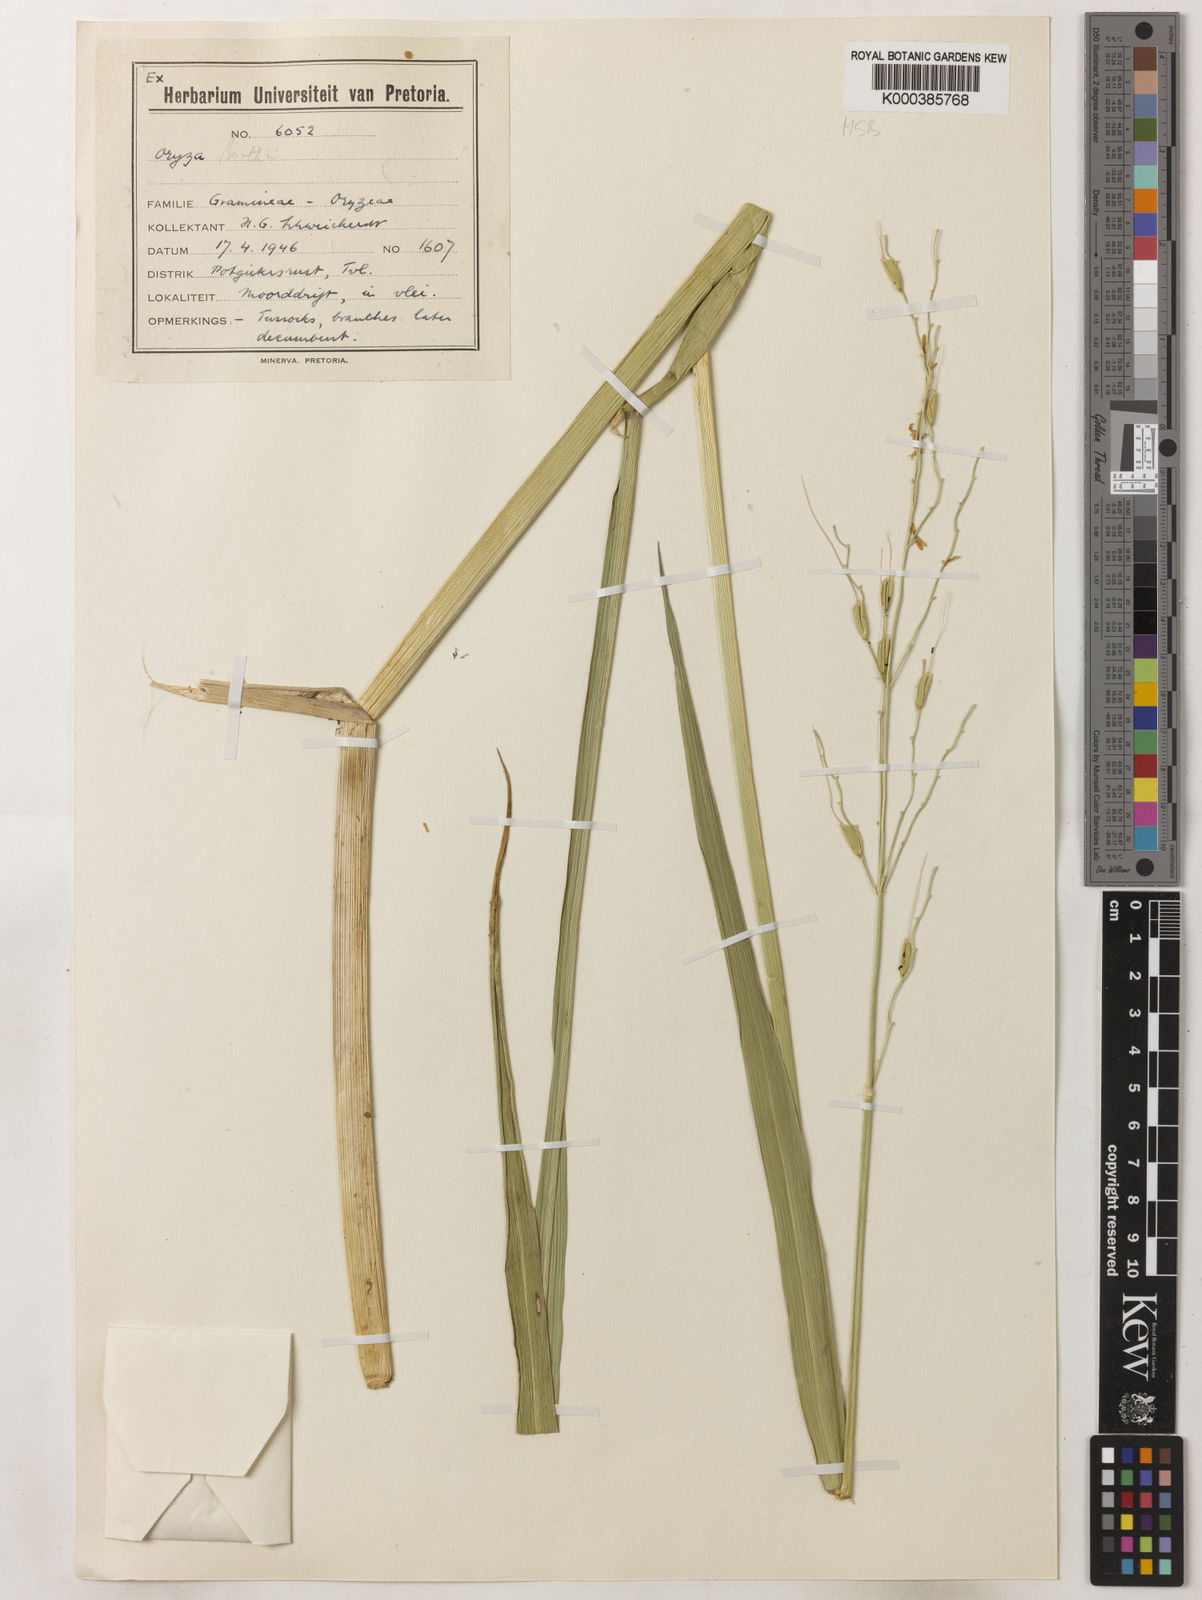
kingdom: Plantae
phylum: Tracheophyta
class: Liliopsida
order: Poales
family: Poaceae
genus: Oryza
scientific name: Oryza longistaminata
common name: Red rice
